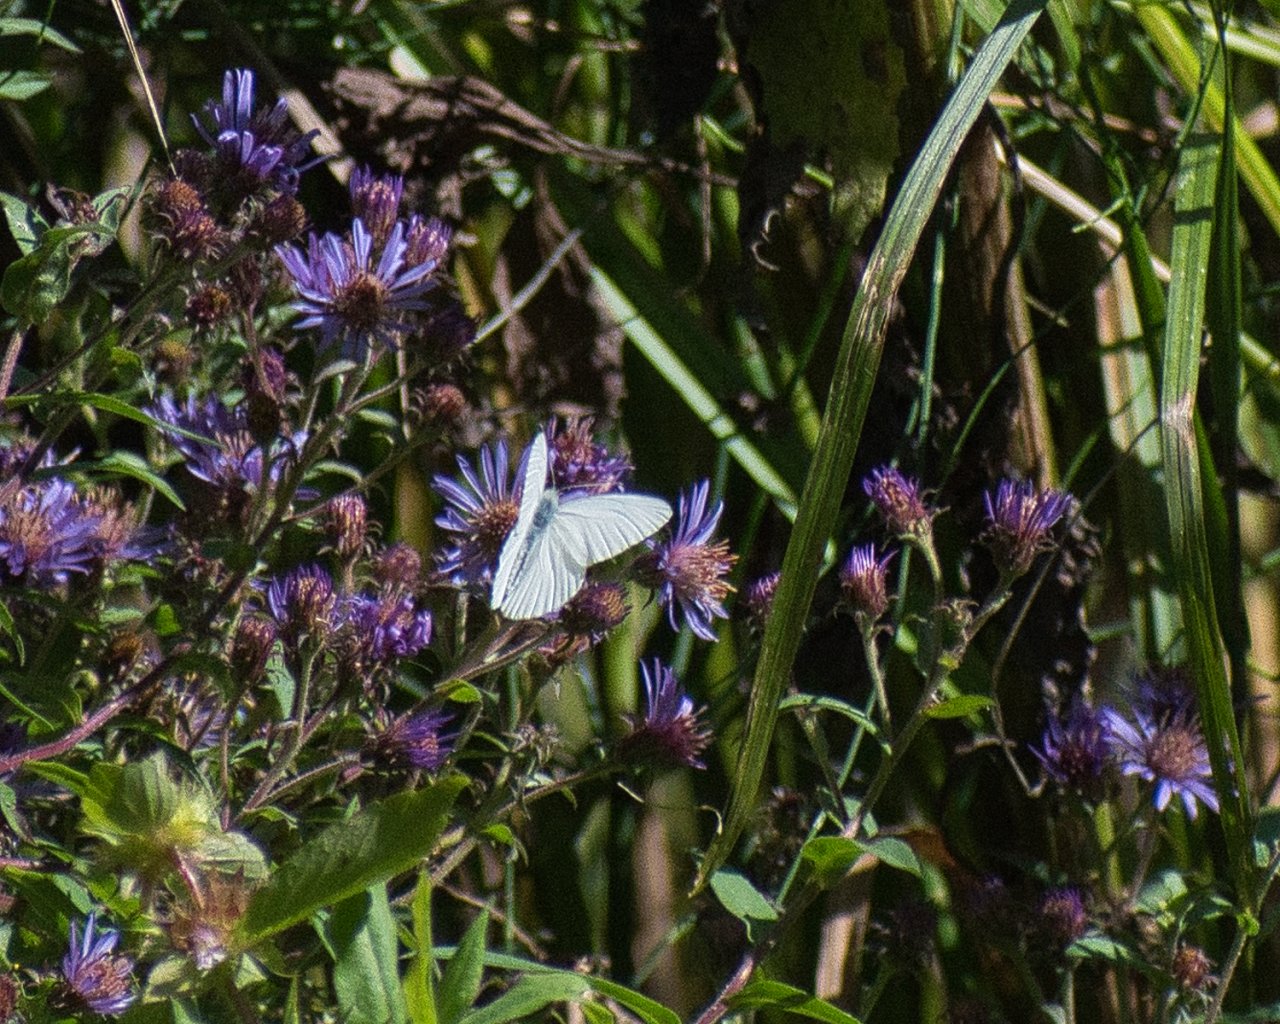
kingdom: Animalia
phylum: Arthropoda
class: Insecta
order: Lepidoptera
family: Pieridae
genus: Pieris
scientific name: Pieris marginalis
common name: Margined White
